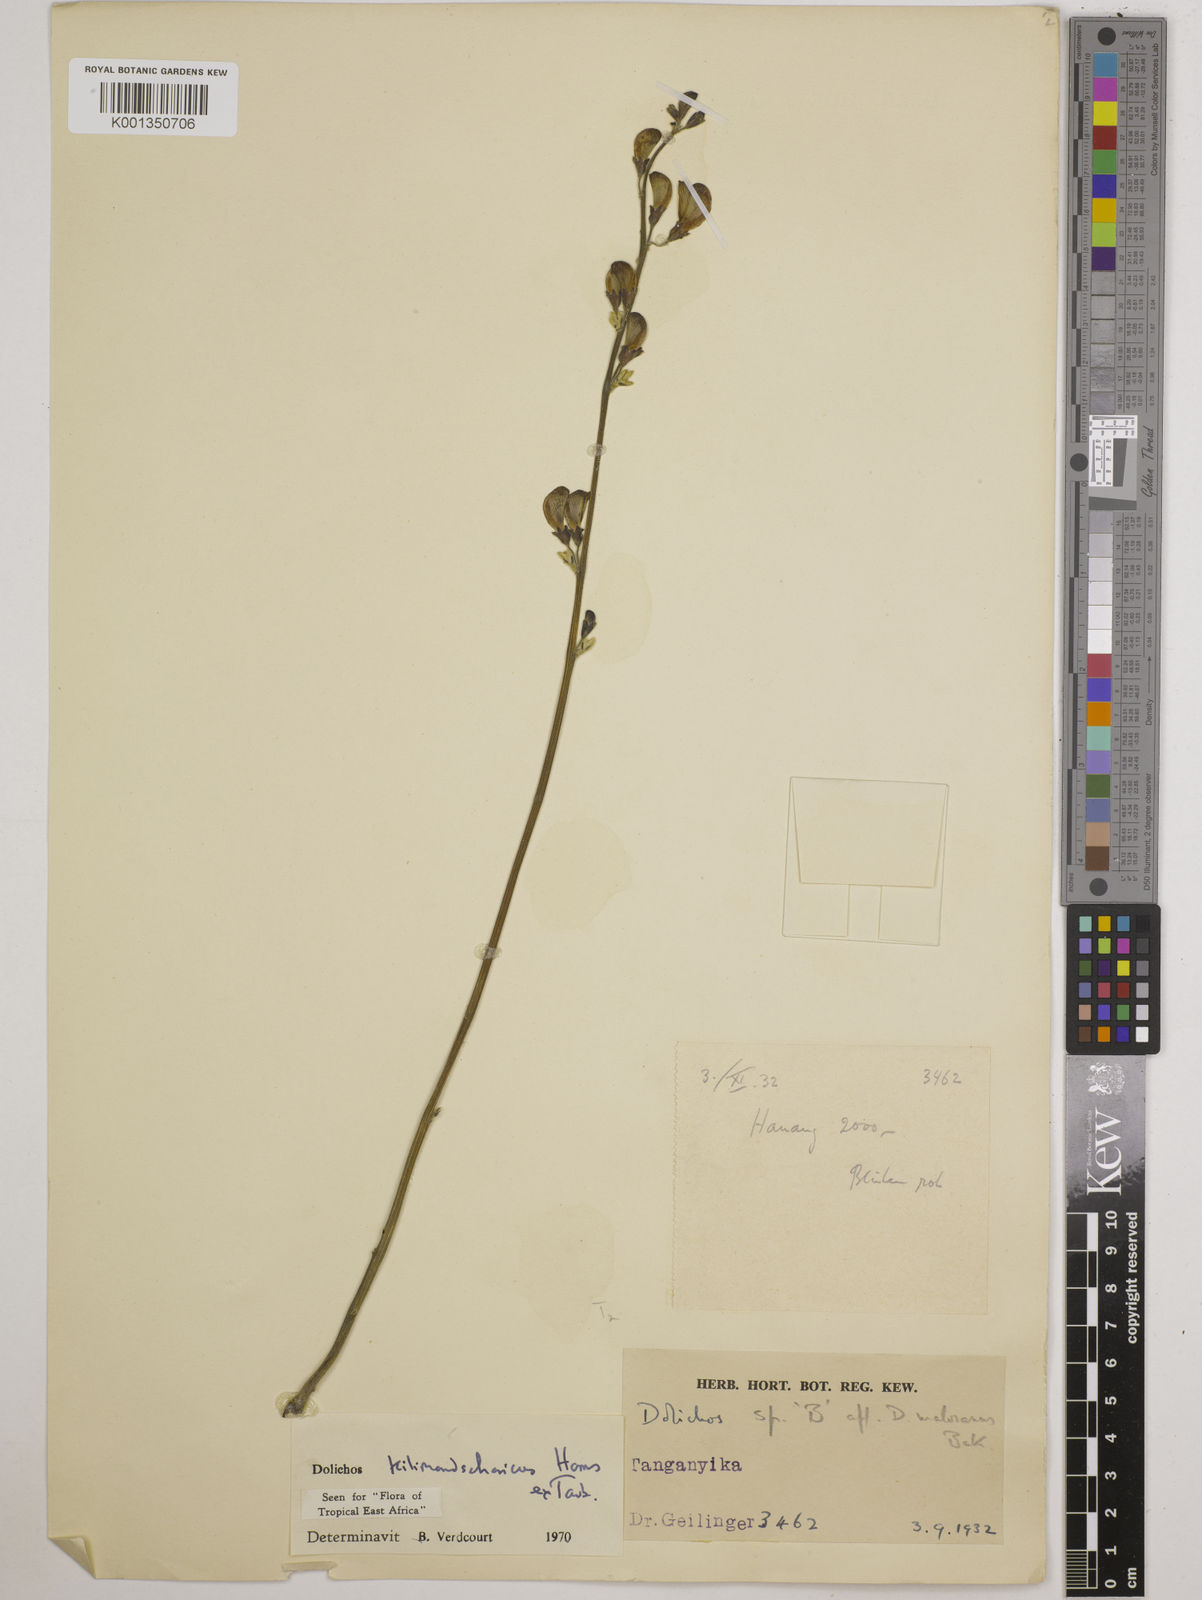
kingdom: Plantae
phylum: Tracheophyta
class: Magnoliopsida
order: Fabales
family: Fabaceae
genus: Dolichos
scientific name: Dolichos kilimandscharicus
